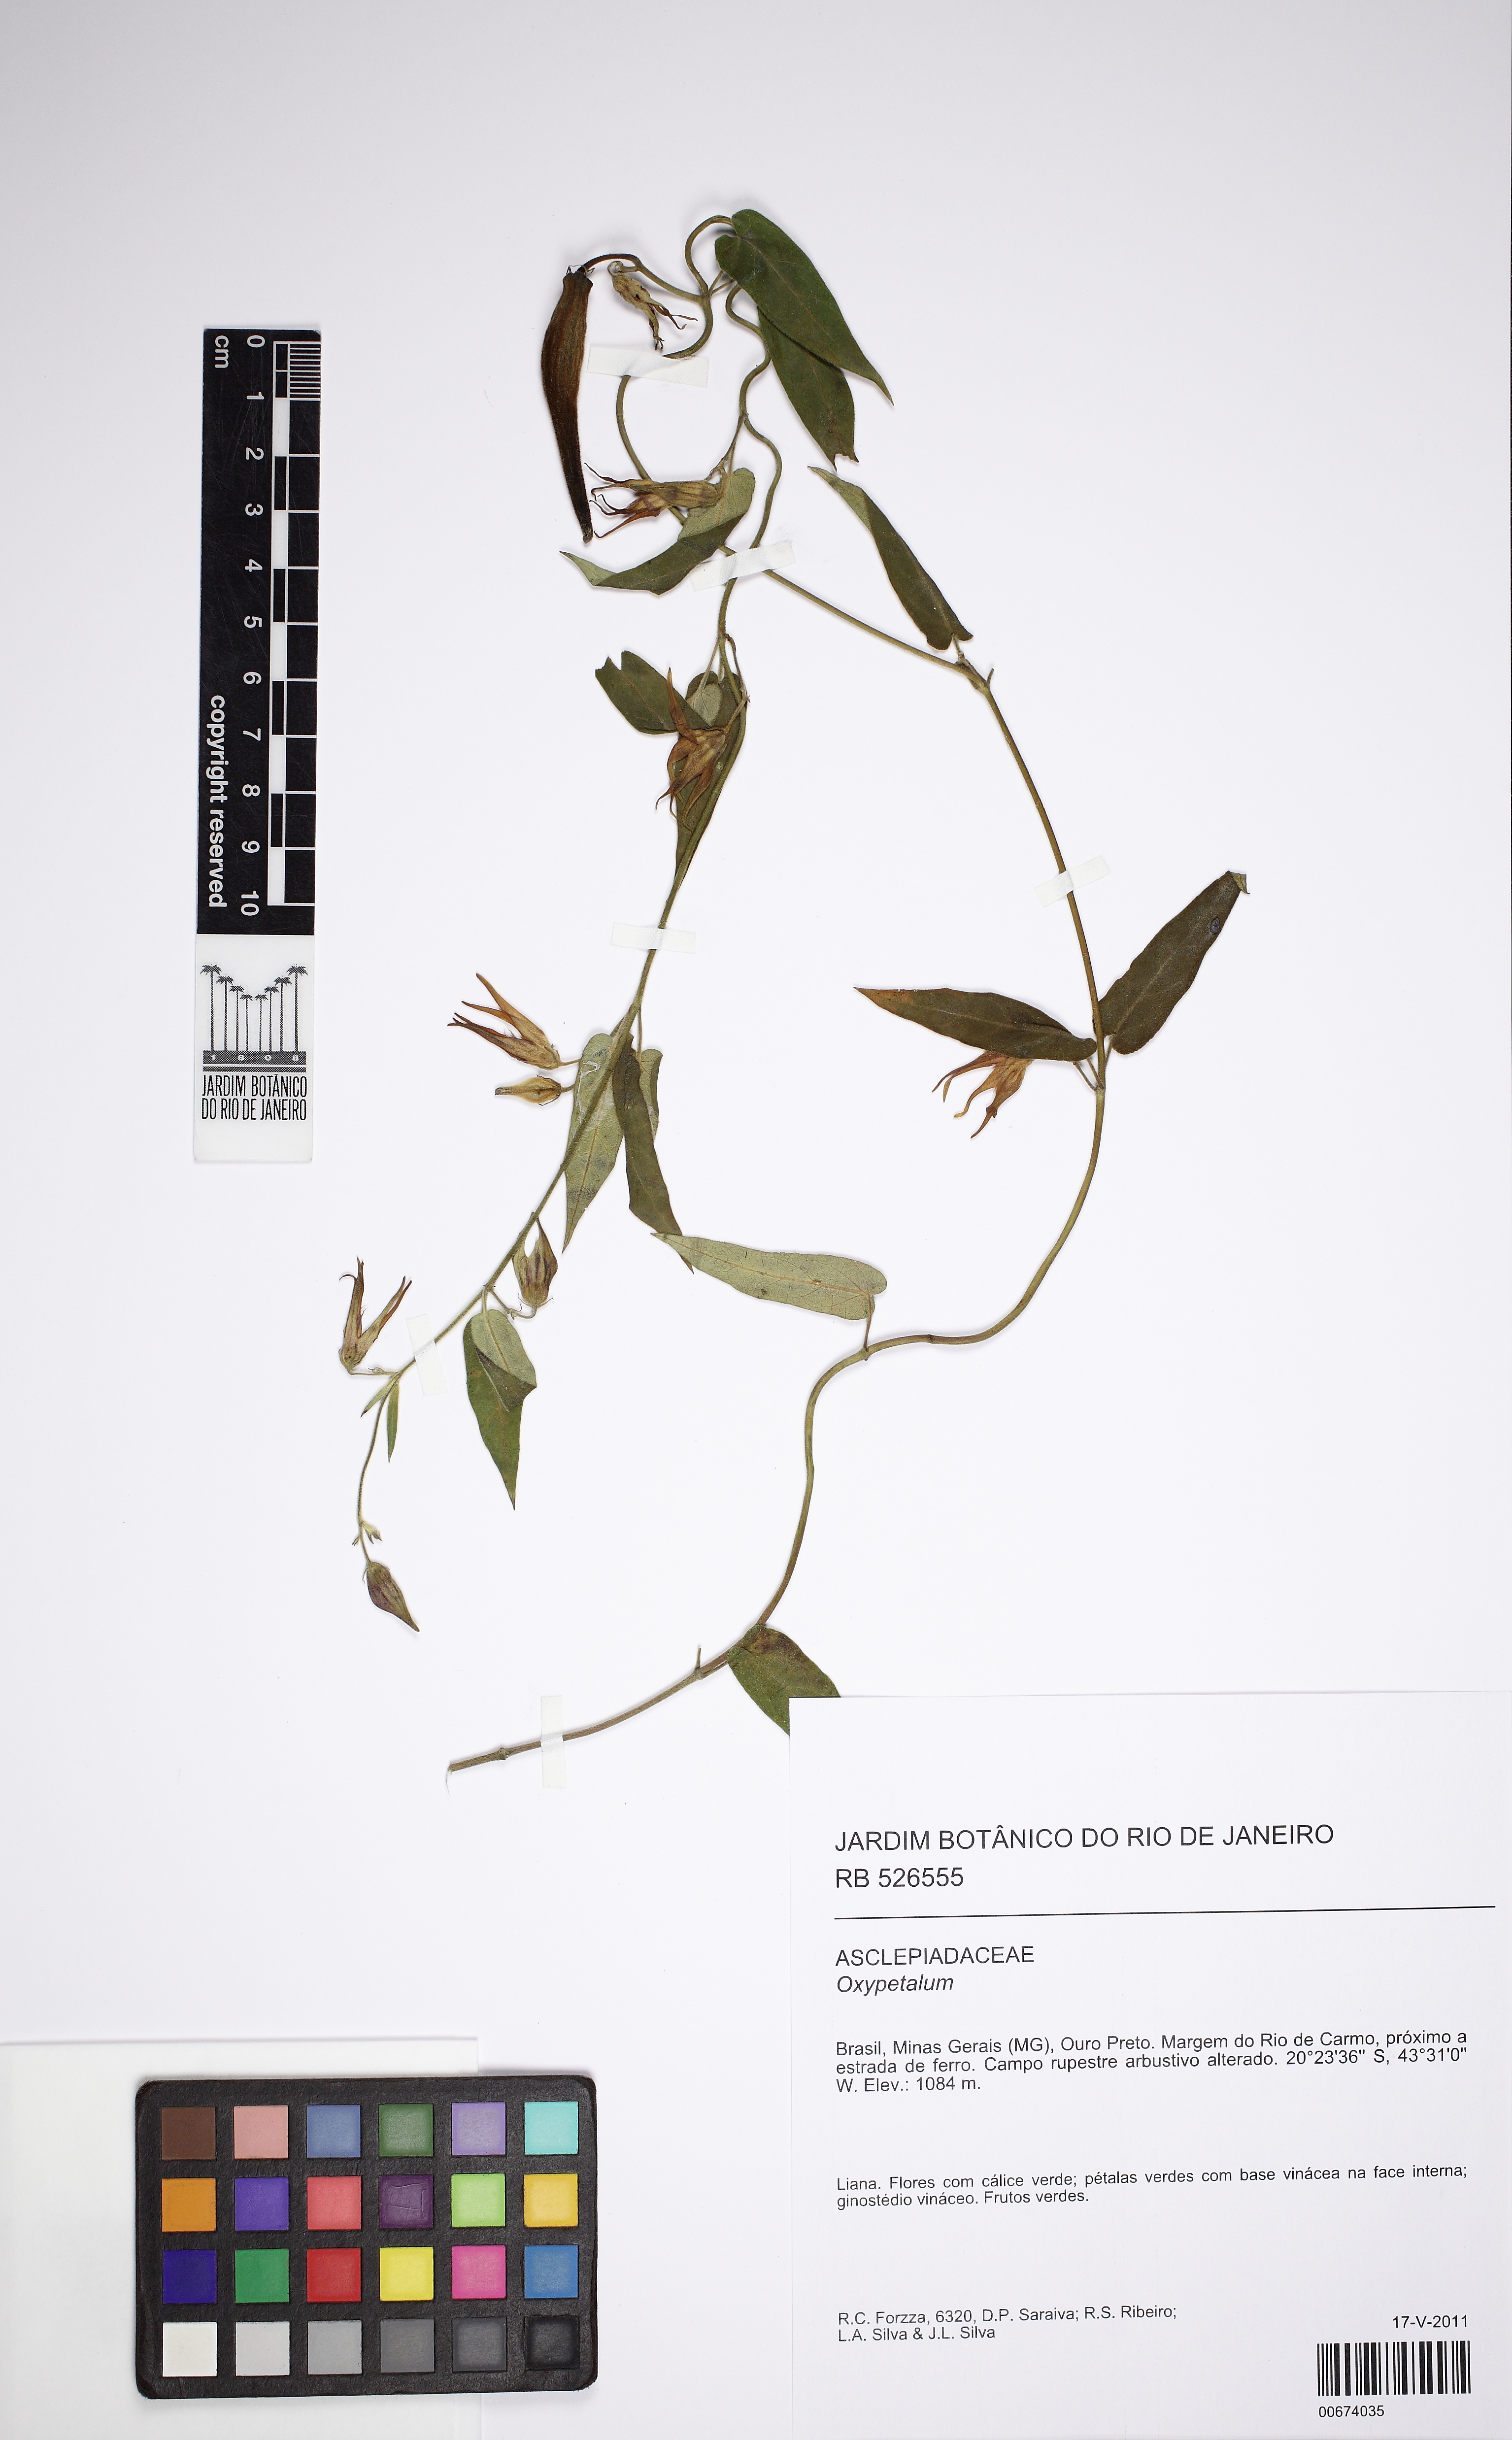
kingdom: Plantae
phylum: Tracheophyta
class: Magnoliopsida
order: Gentianales
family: Apocynaceae
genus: Oxypetalum
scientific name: Oxypetalum
